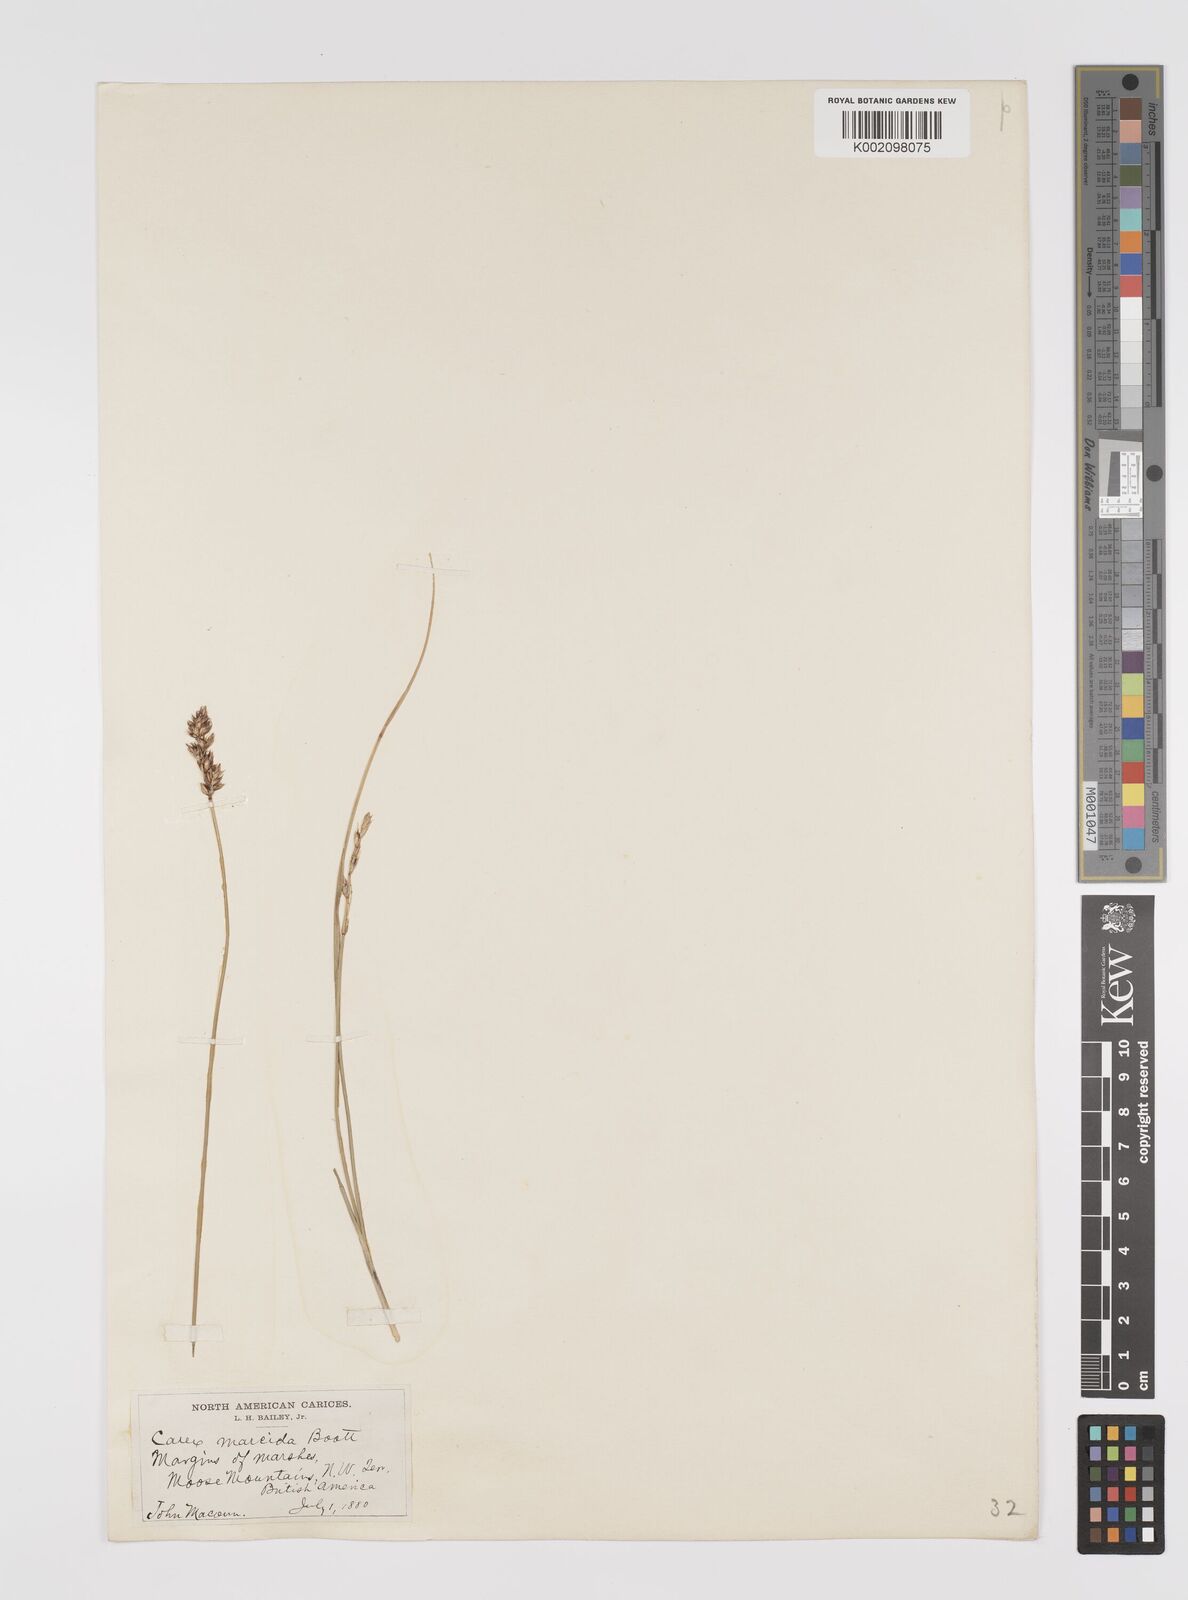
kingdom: Plantae
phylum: Tracheophyta
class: Liliopsida
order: Poales
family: Cyperaceae
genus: Carex
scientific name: Carex praegracilis
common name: Black creeper sedge
